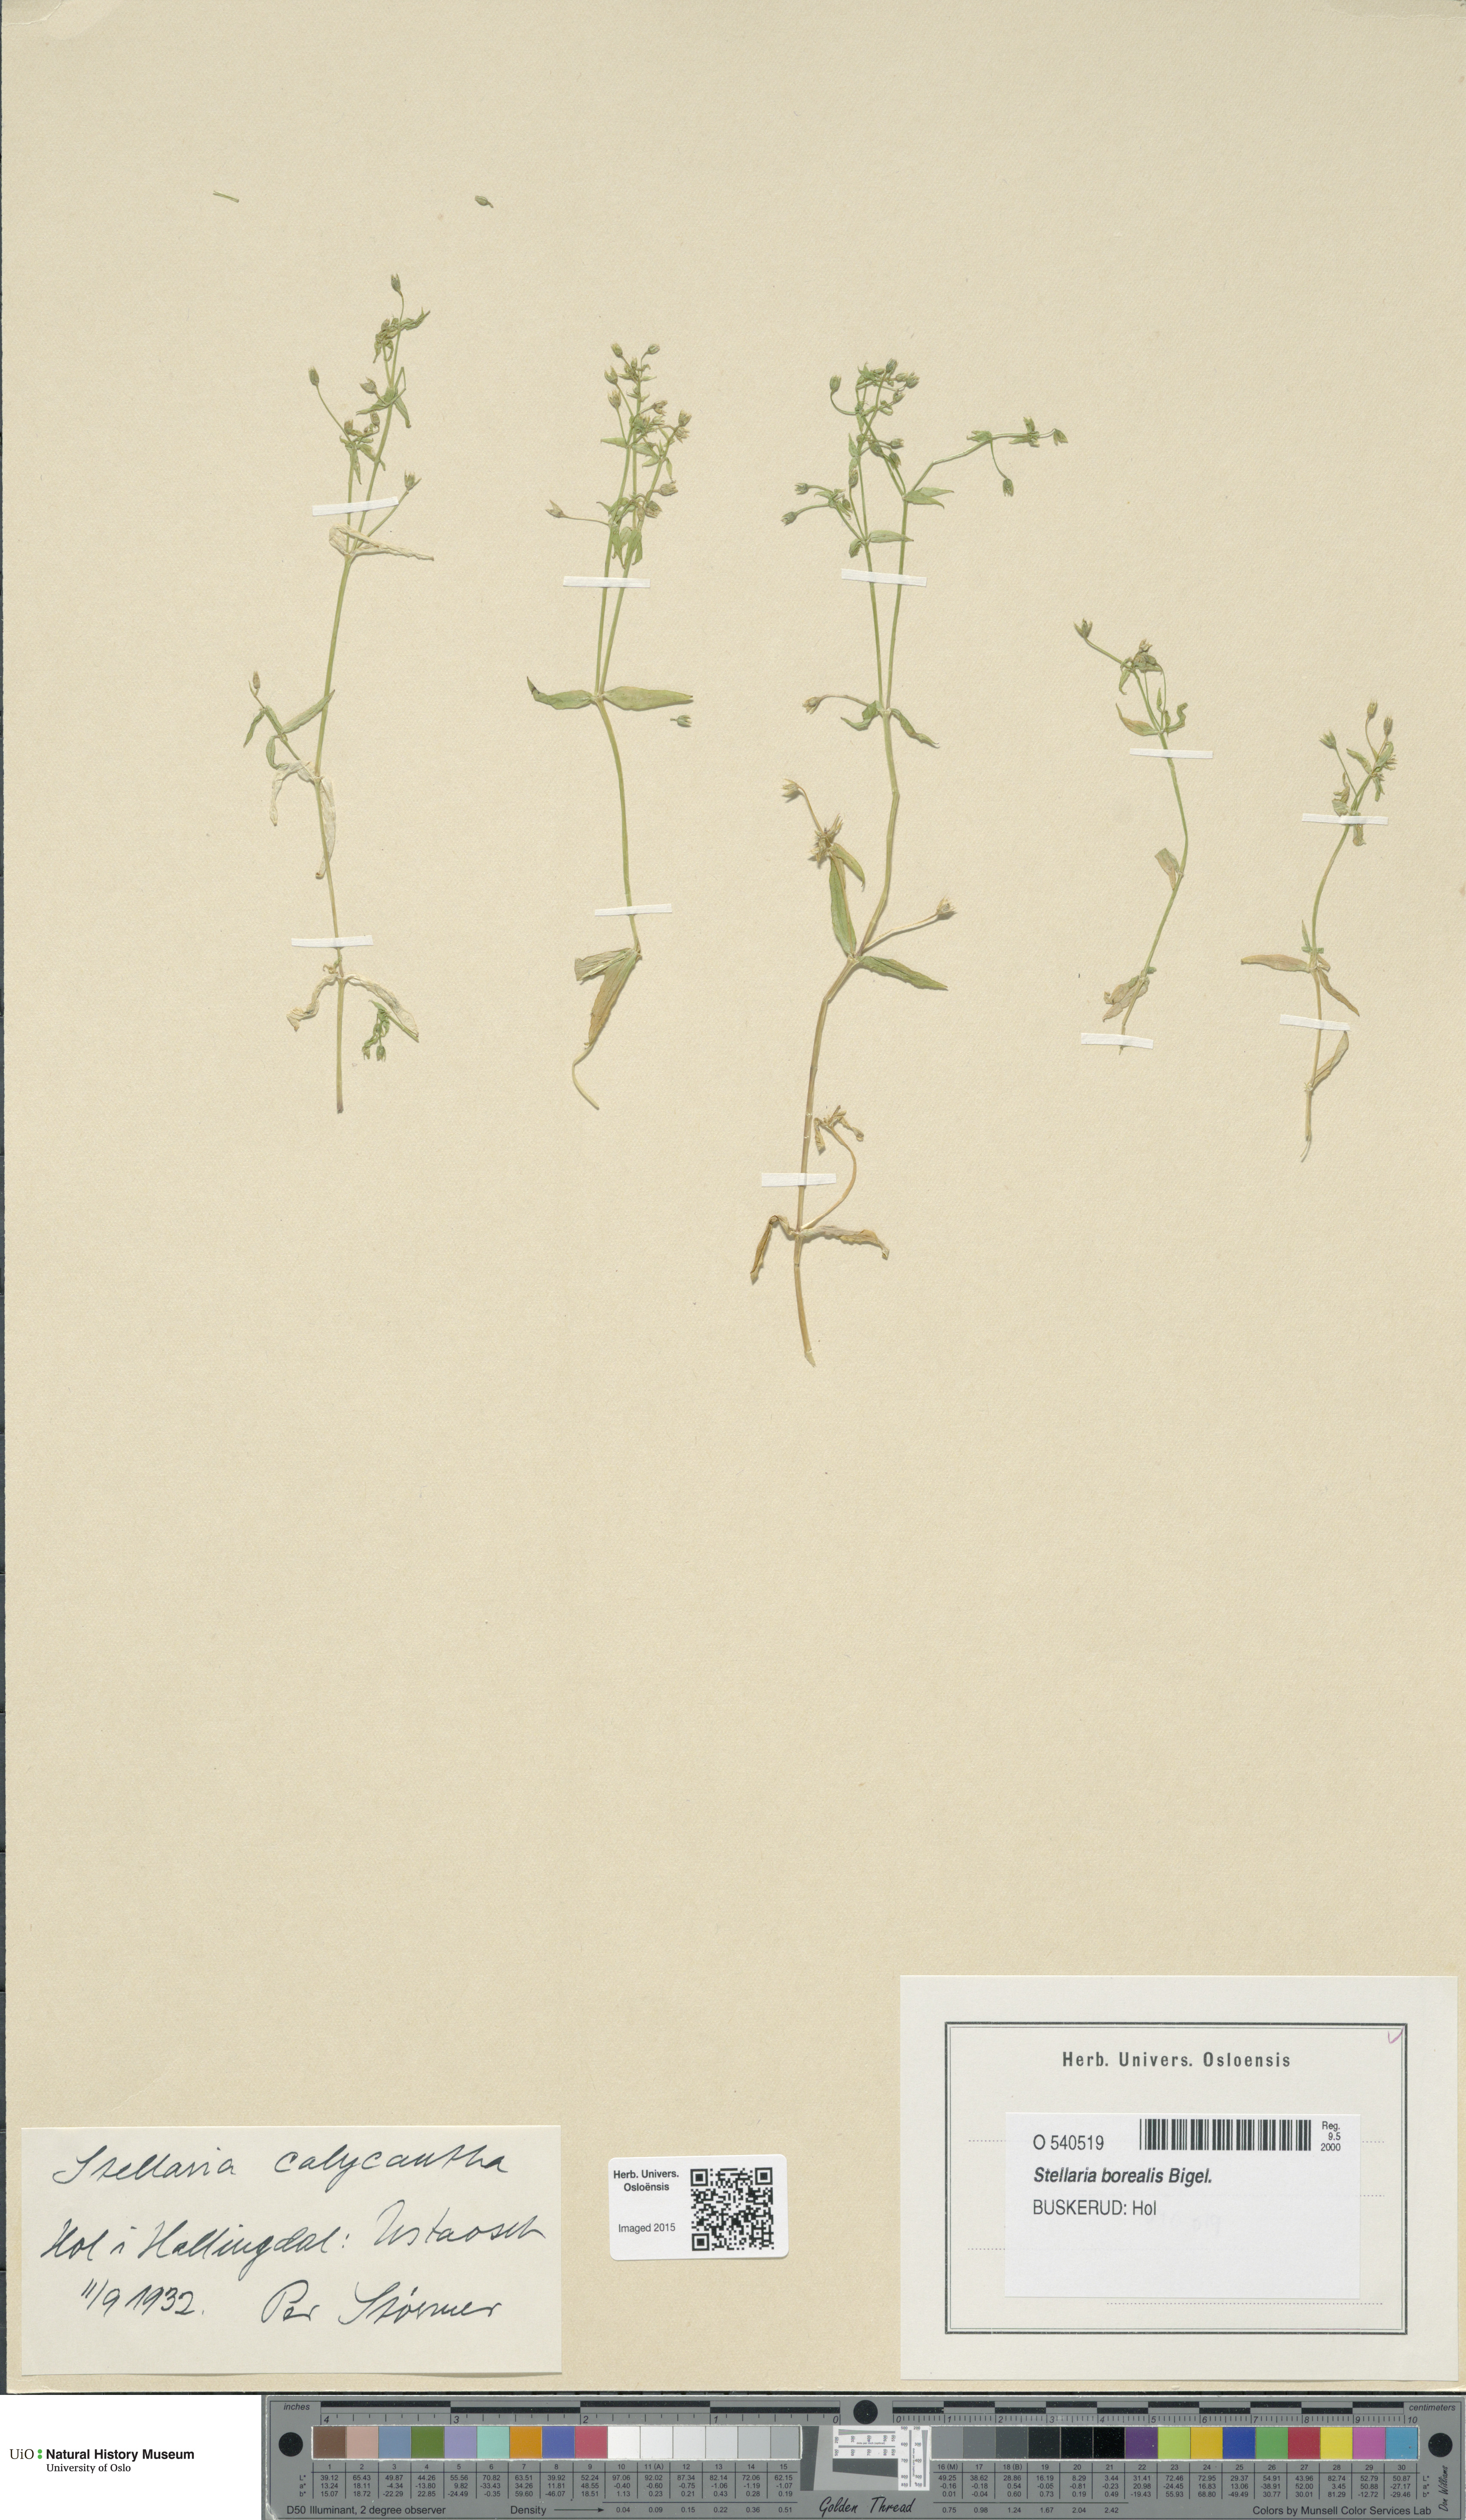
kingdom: Plantae
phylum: Tracheophyta
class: Magnoliopsida
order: Caryophyllales
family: Caryophyllaceae
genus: Stellaria
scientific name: Stellaria borealis
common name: Boreal starwort
